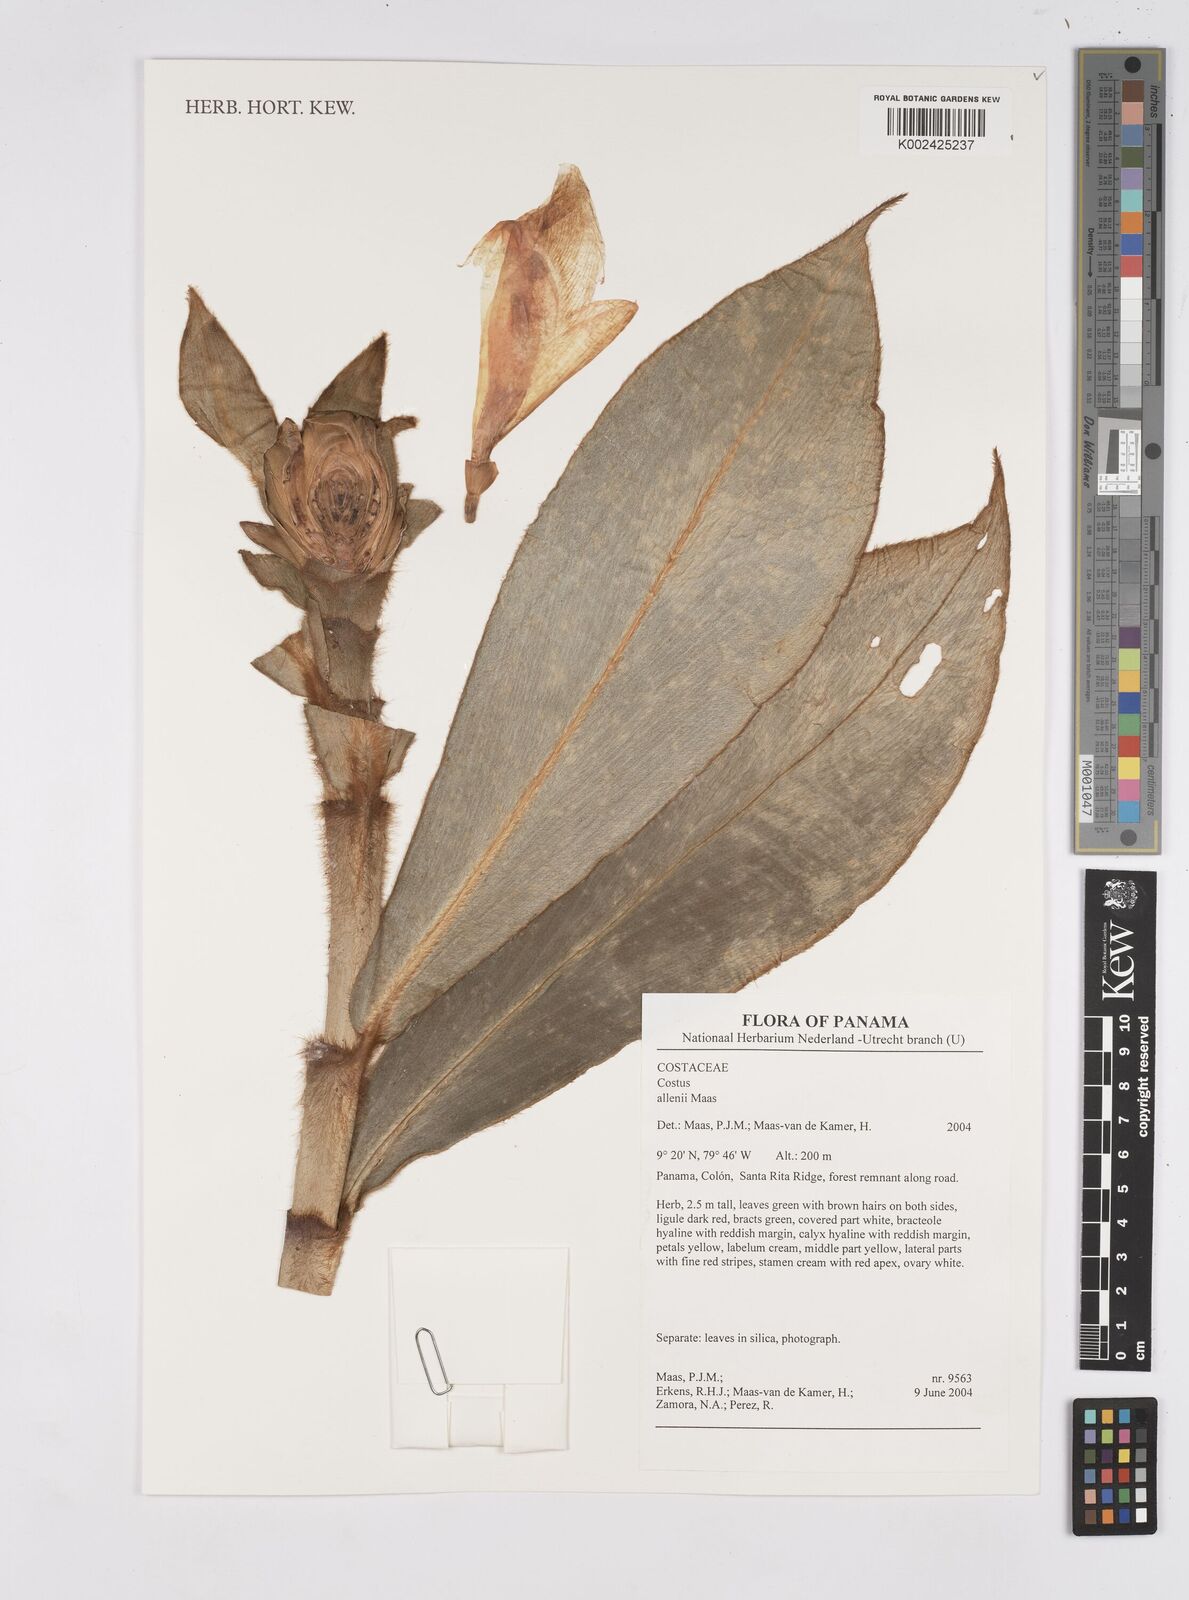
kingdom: Plantae
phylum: Tracheophyta
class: Liliopsida
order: Zingiberales
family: Costaceae
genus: Costus
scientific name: Costus allenii
